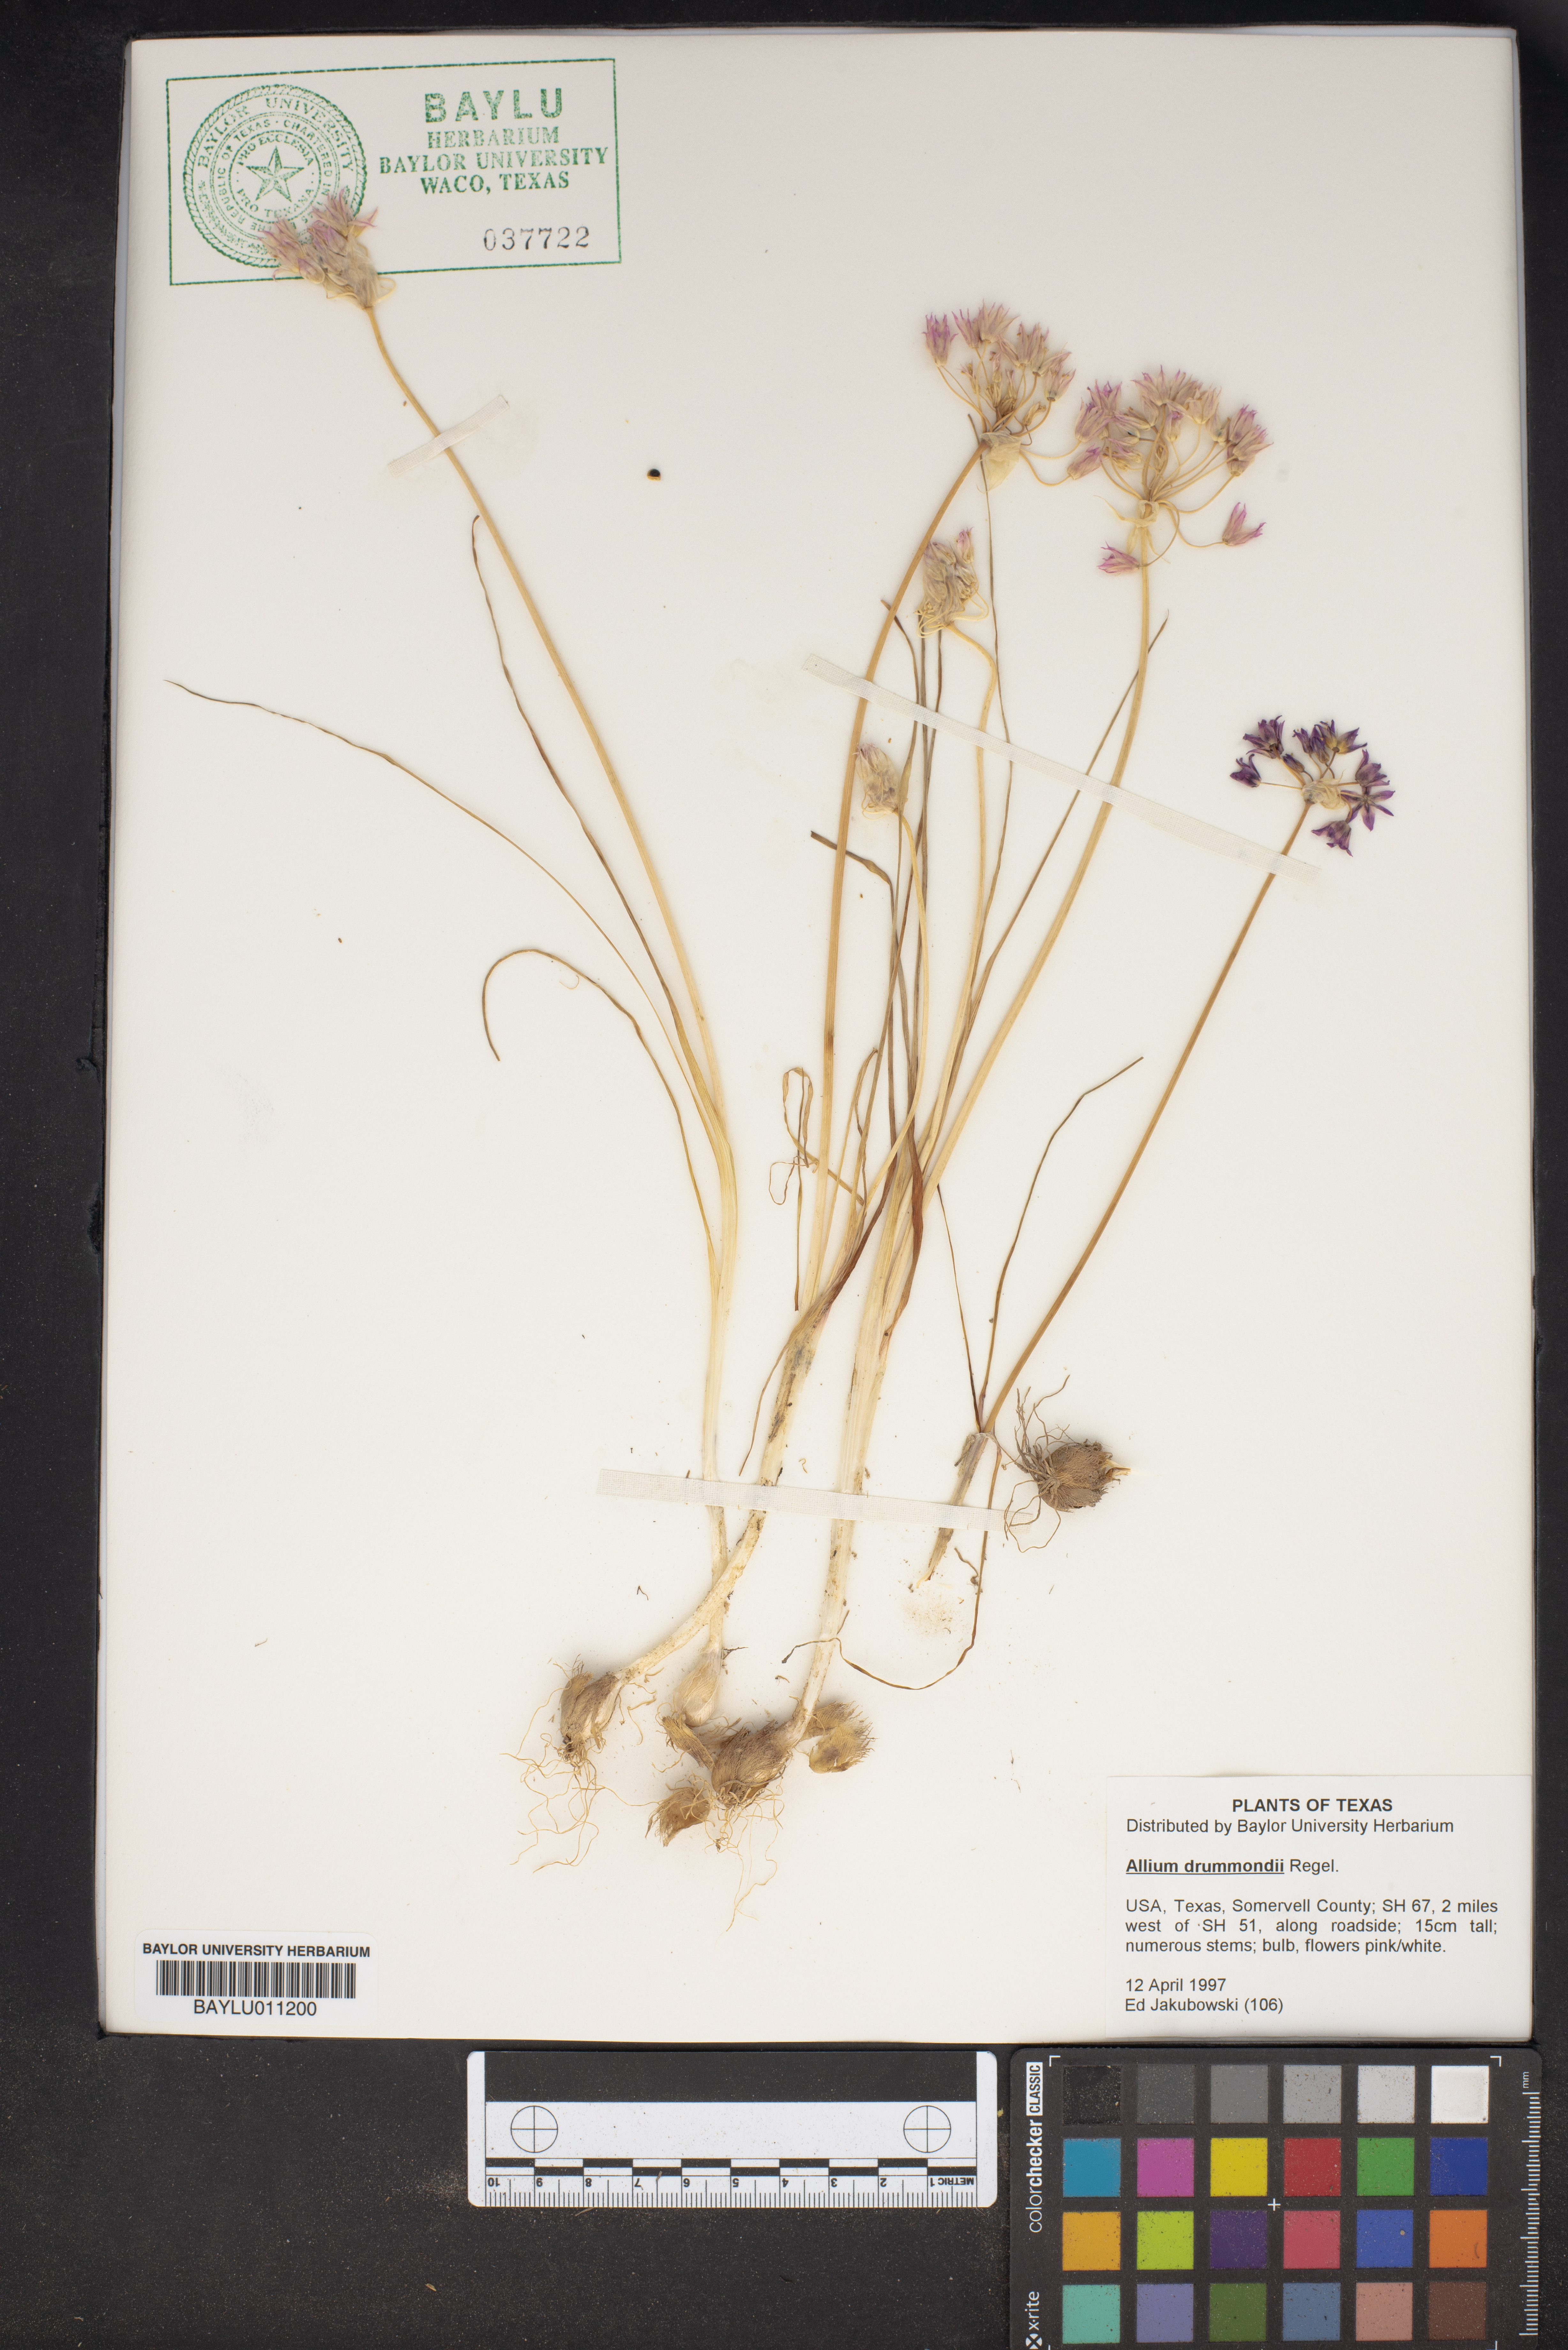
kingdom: Plantae
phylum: Tracheophyta
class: Liliopsida
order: Asparagales
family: Amaryllidaceae
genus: Allium
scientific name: Allium drummondii
